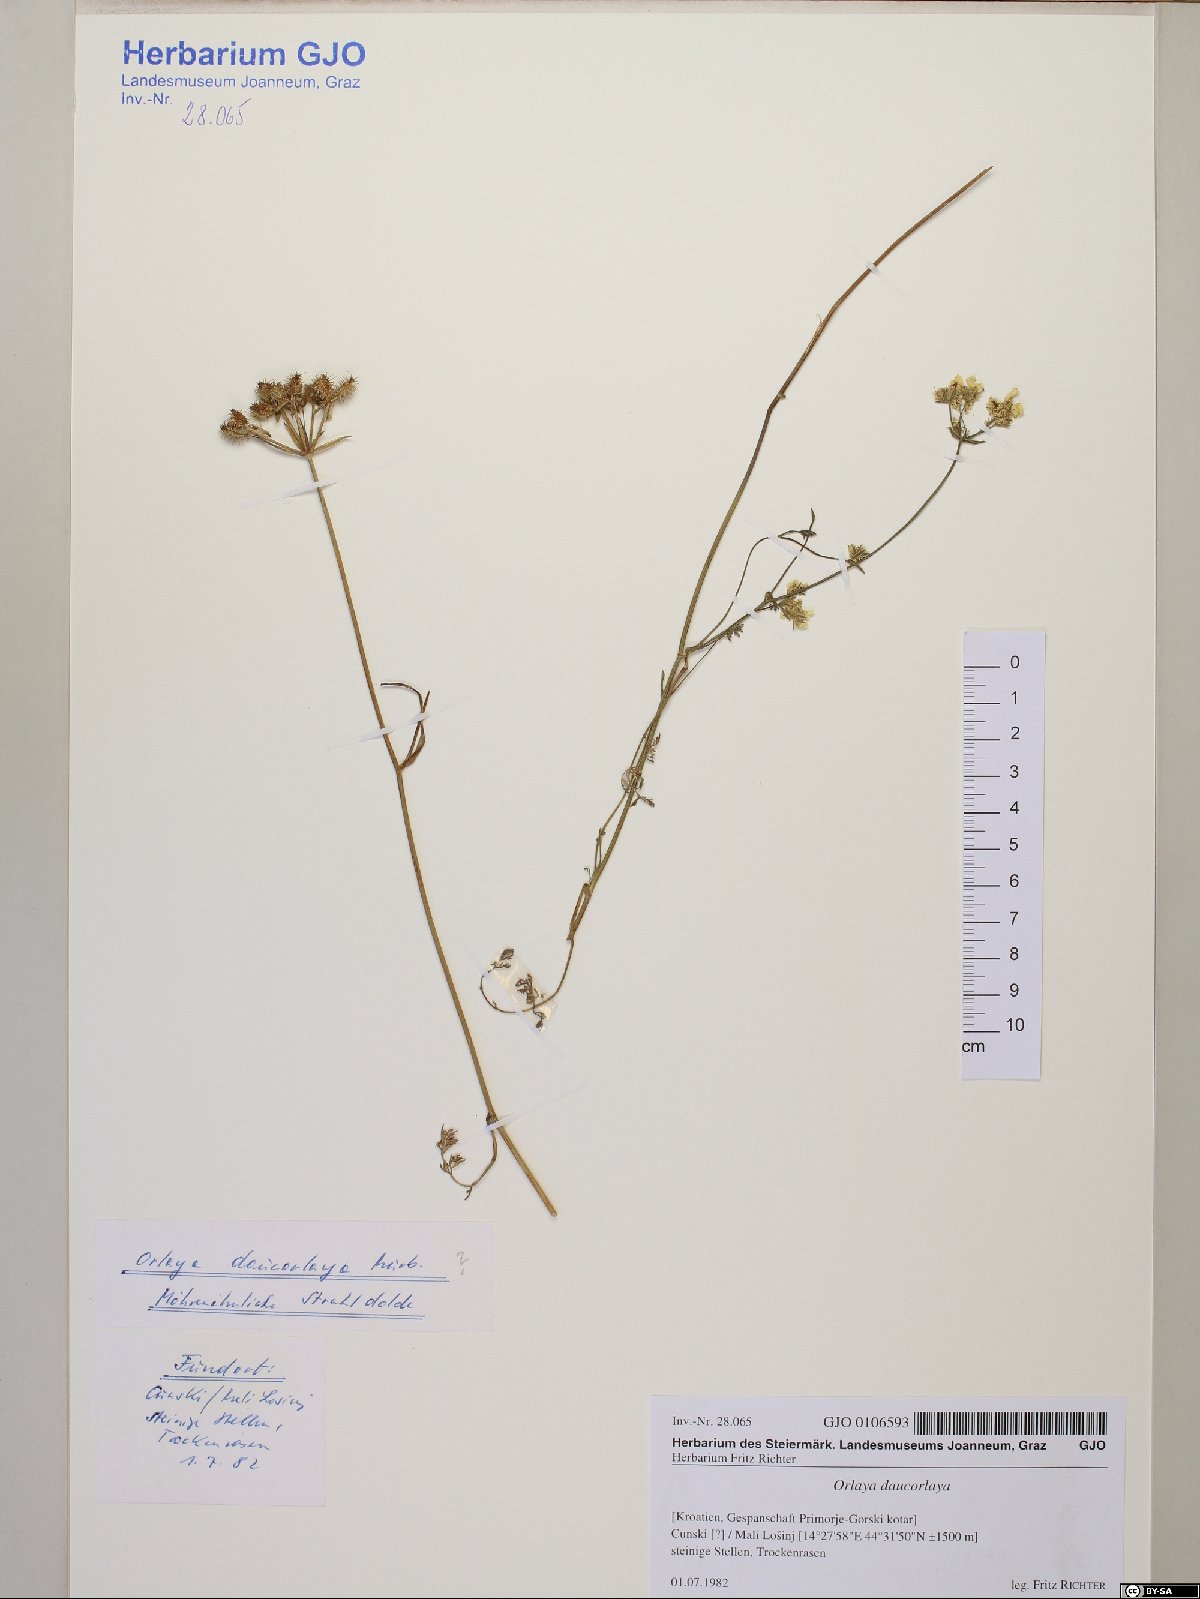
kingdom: Plantae
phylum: Tracheophyta
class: Magnoliopsida
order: Apiales
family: Apiaceae
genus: Orlaya
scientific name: Orlaya daucorlaya
